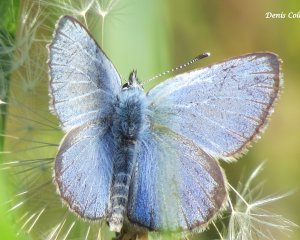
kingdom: Animalia
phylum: Arthropoda
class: Insecta
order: Lepidoptera
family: Lycaenidae
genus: Glaucopsyche
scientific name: Glaucopsyche lygdamus
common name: Silvery Blue
